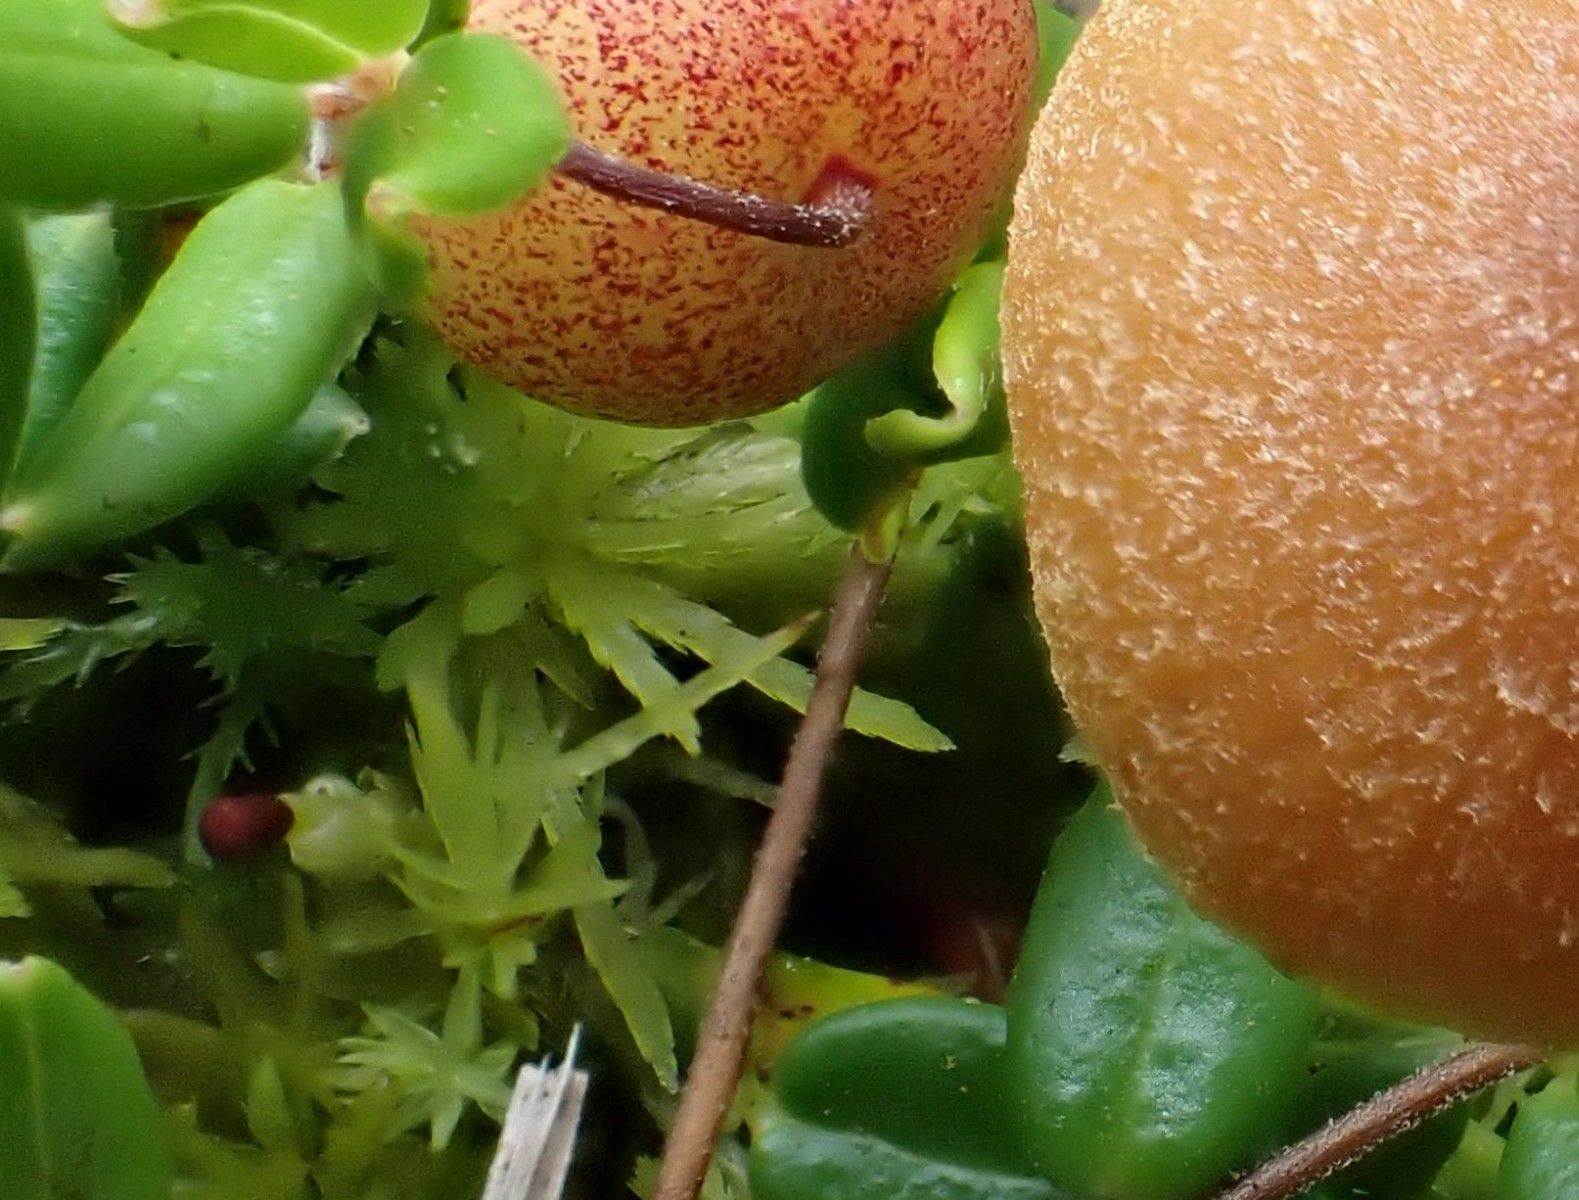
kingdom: Fungi
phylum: Basidiomycota
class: Agaricomycetes
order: Agaricales
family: Hymenogastraceae
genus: Galerina
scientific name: Galerina paludosa
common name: mose-hjelmhat
